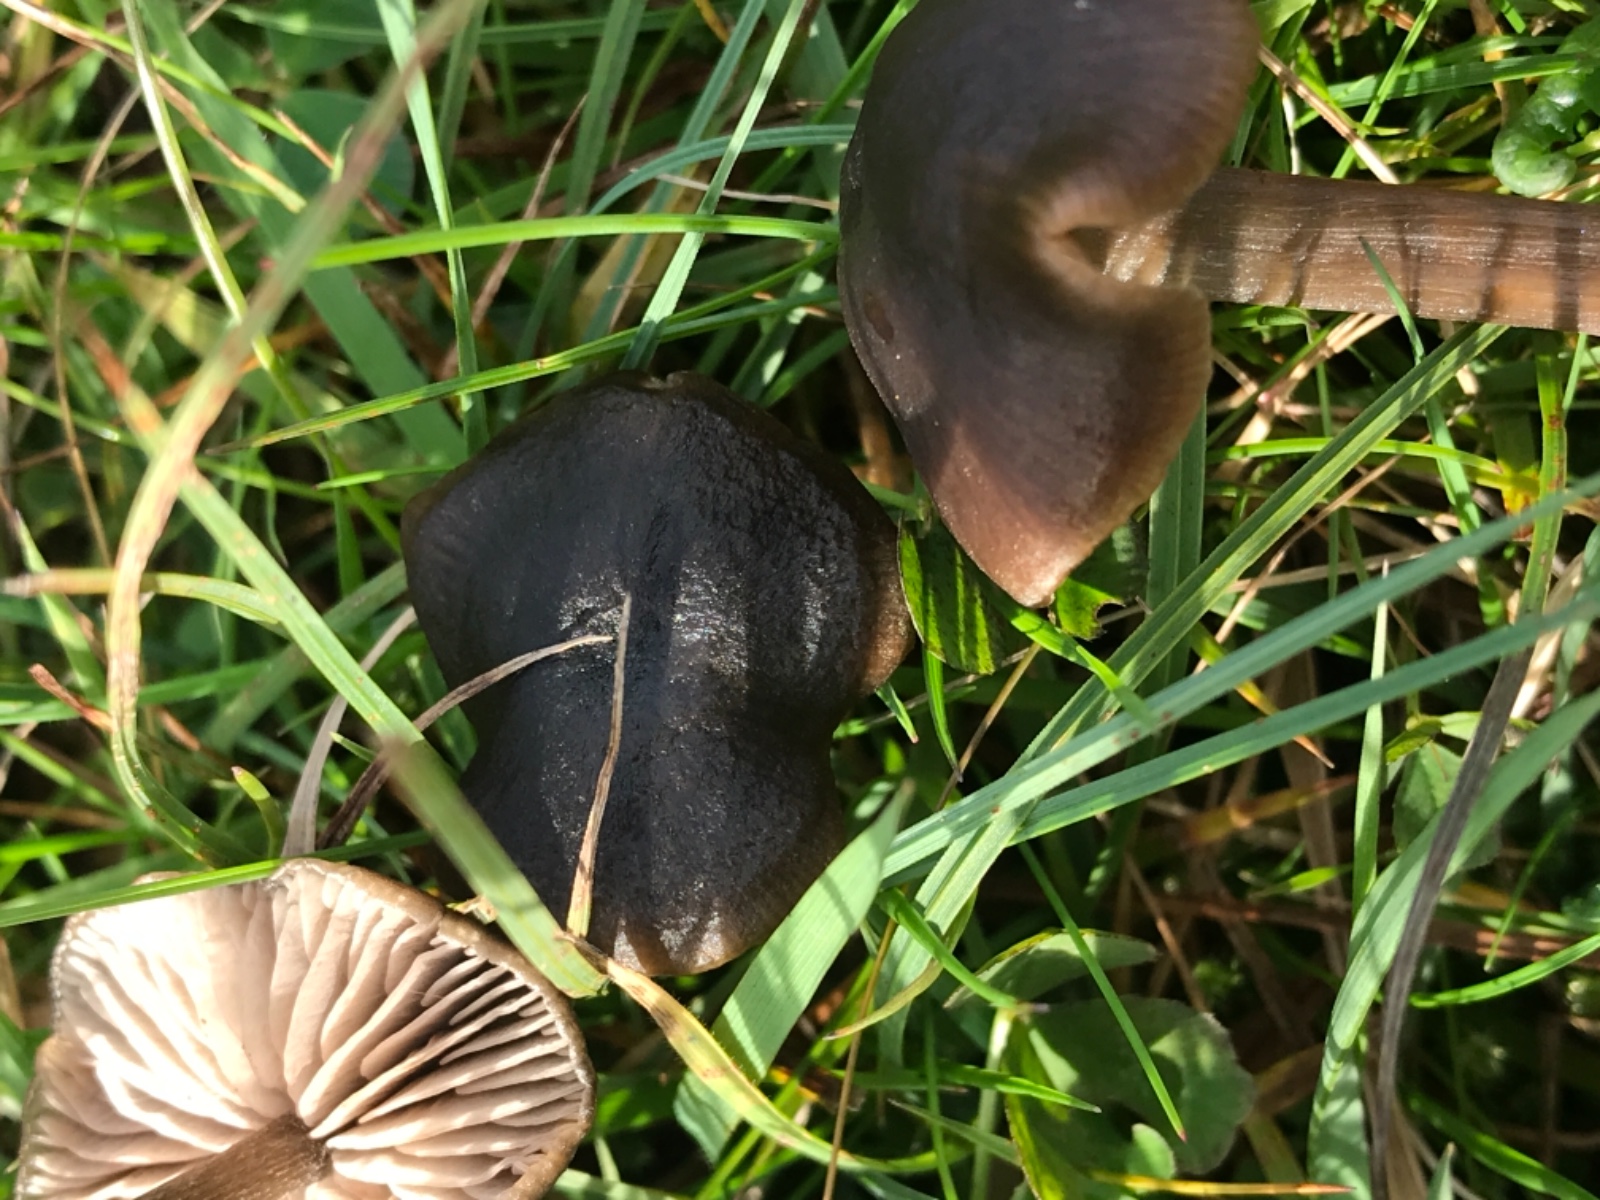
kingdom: Fungi
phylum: Basidiomycota
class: Agaricomycetes
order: Agaricales
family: Entolomataceae
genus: Entoloma
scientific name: Entoloma
